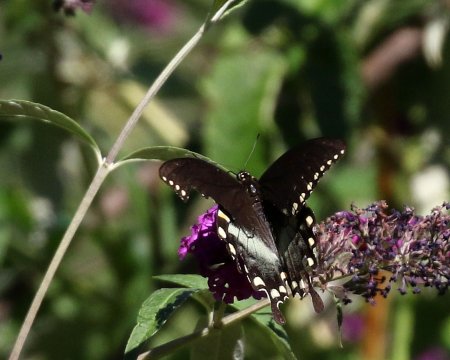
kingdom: Animalia
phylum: Arthropoda
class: Insecta
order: Lepidoptera
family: Papilionidae
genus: Pterourus
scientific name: Pterourus troilus
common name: Spicebush Swallowtail
